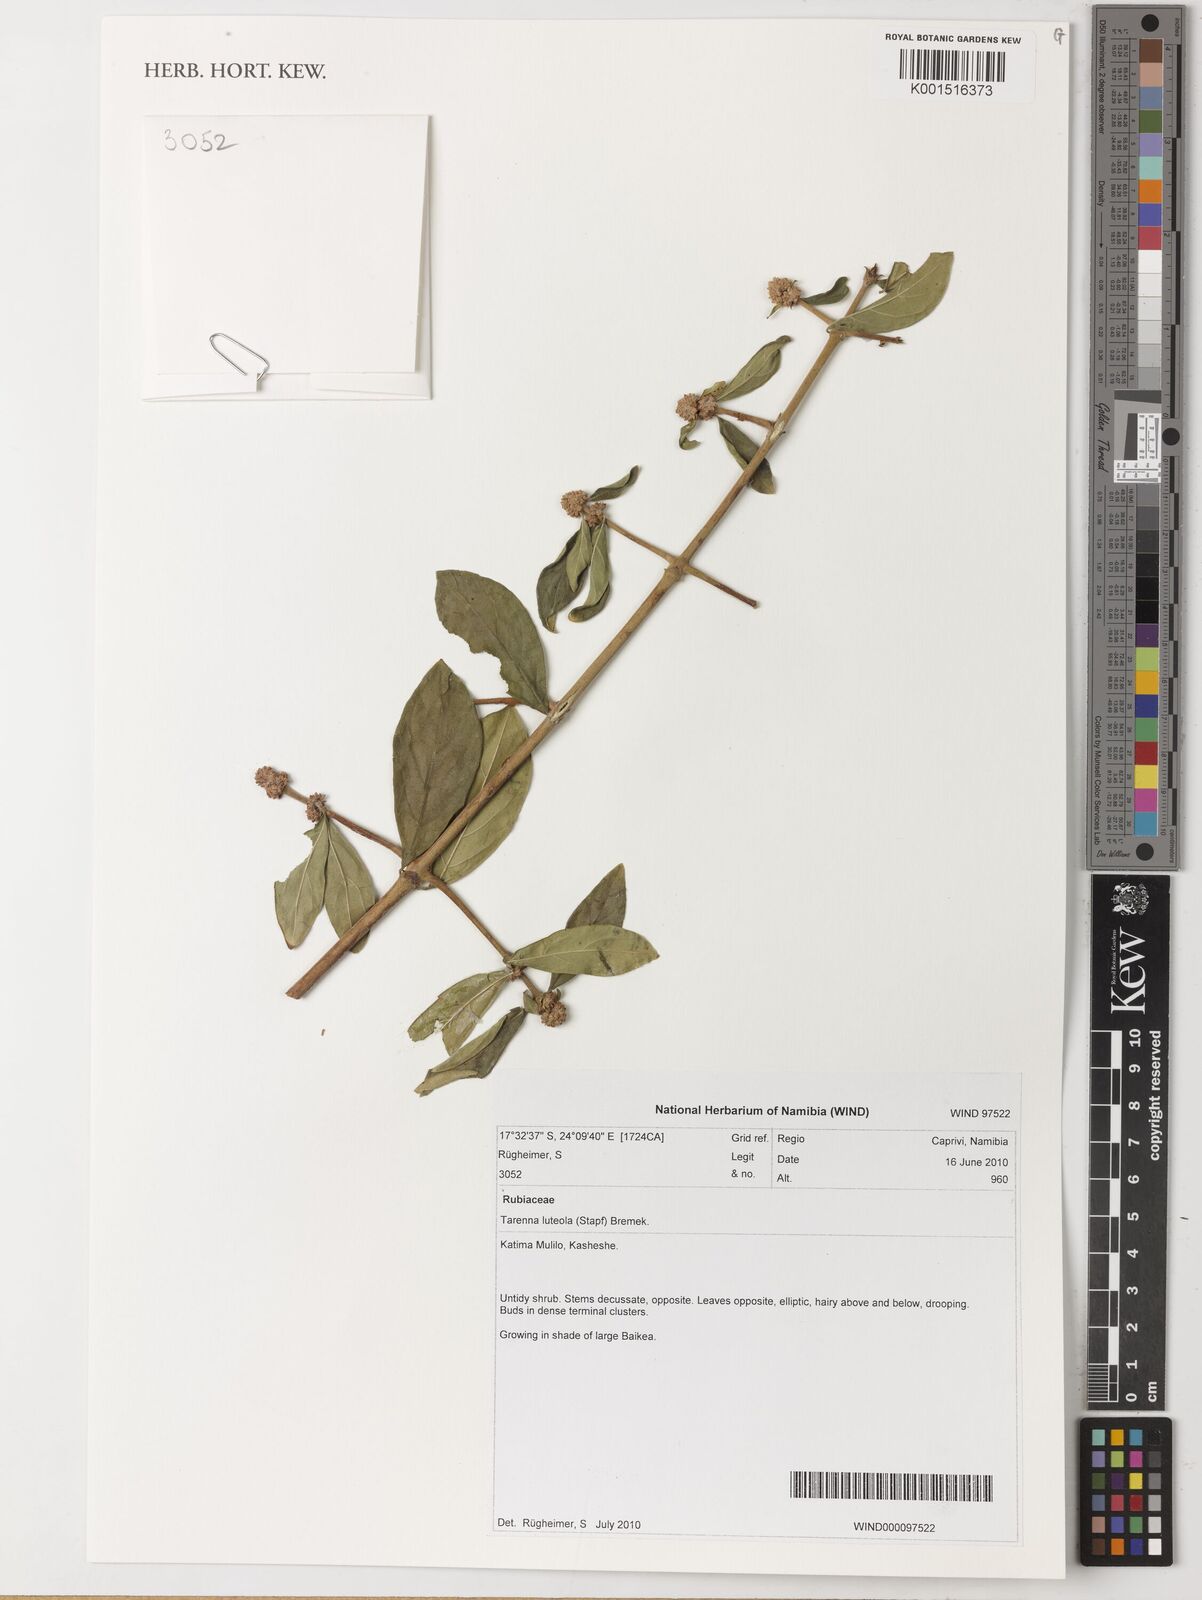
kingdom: Plantae
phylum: Tracheophyta
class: Magnoliopsida
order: Gentianales
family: Rubiaceae
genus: Tarenna
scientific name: Tarenna luteola
